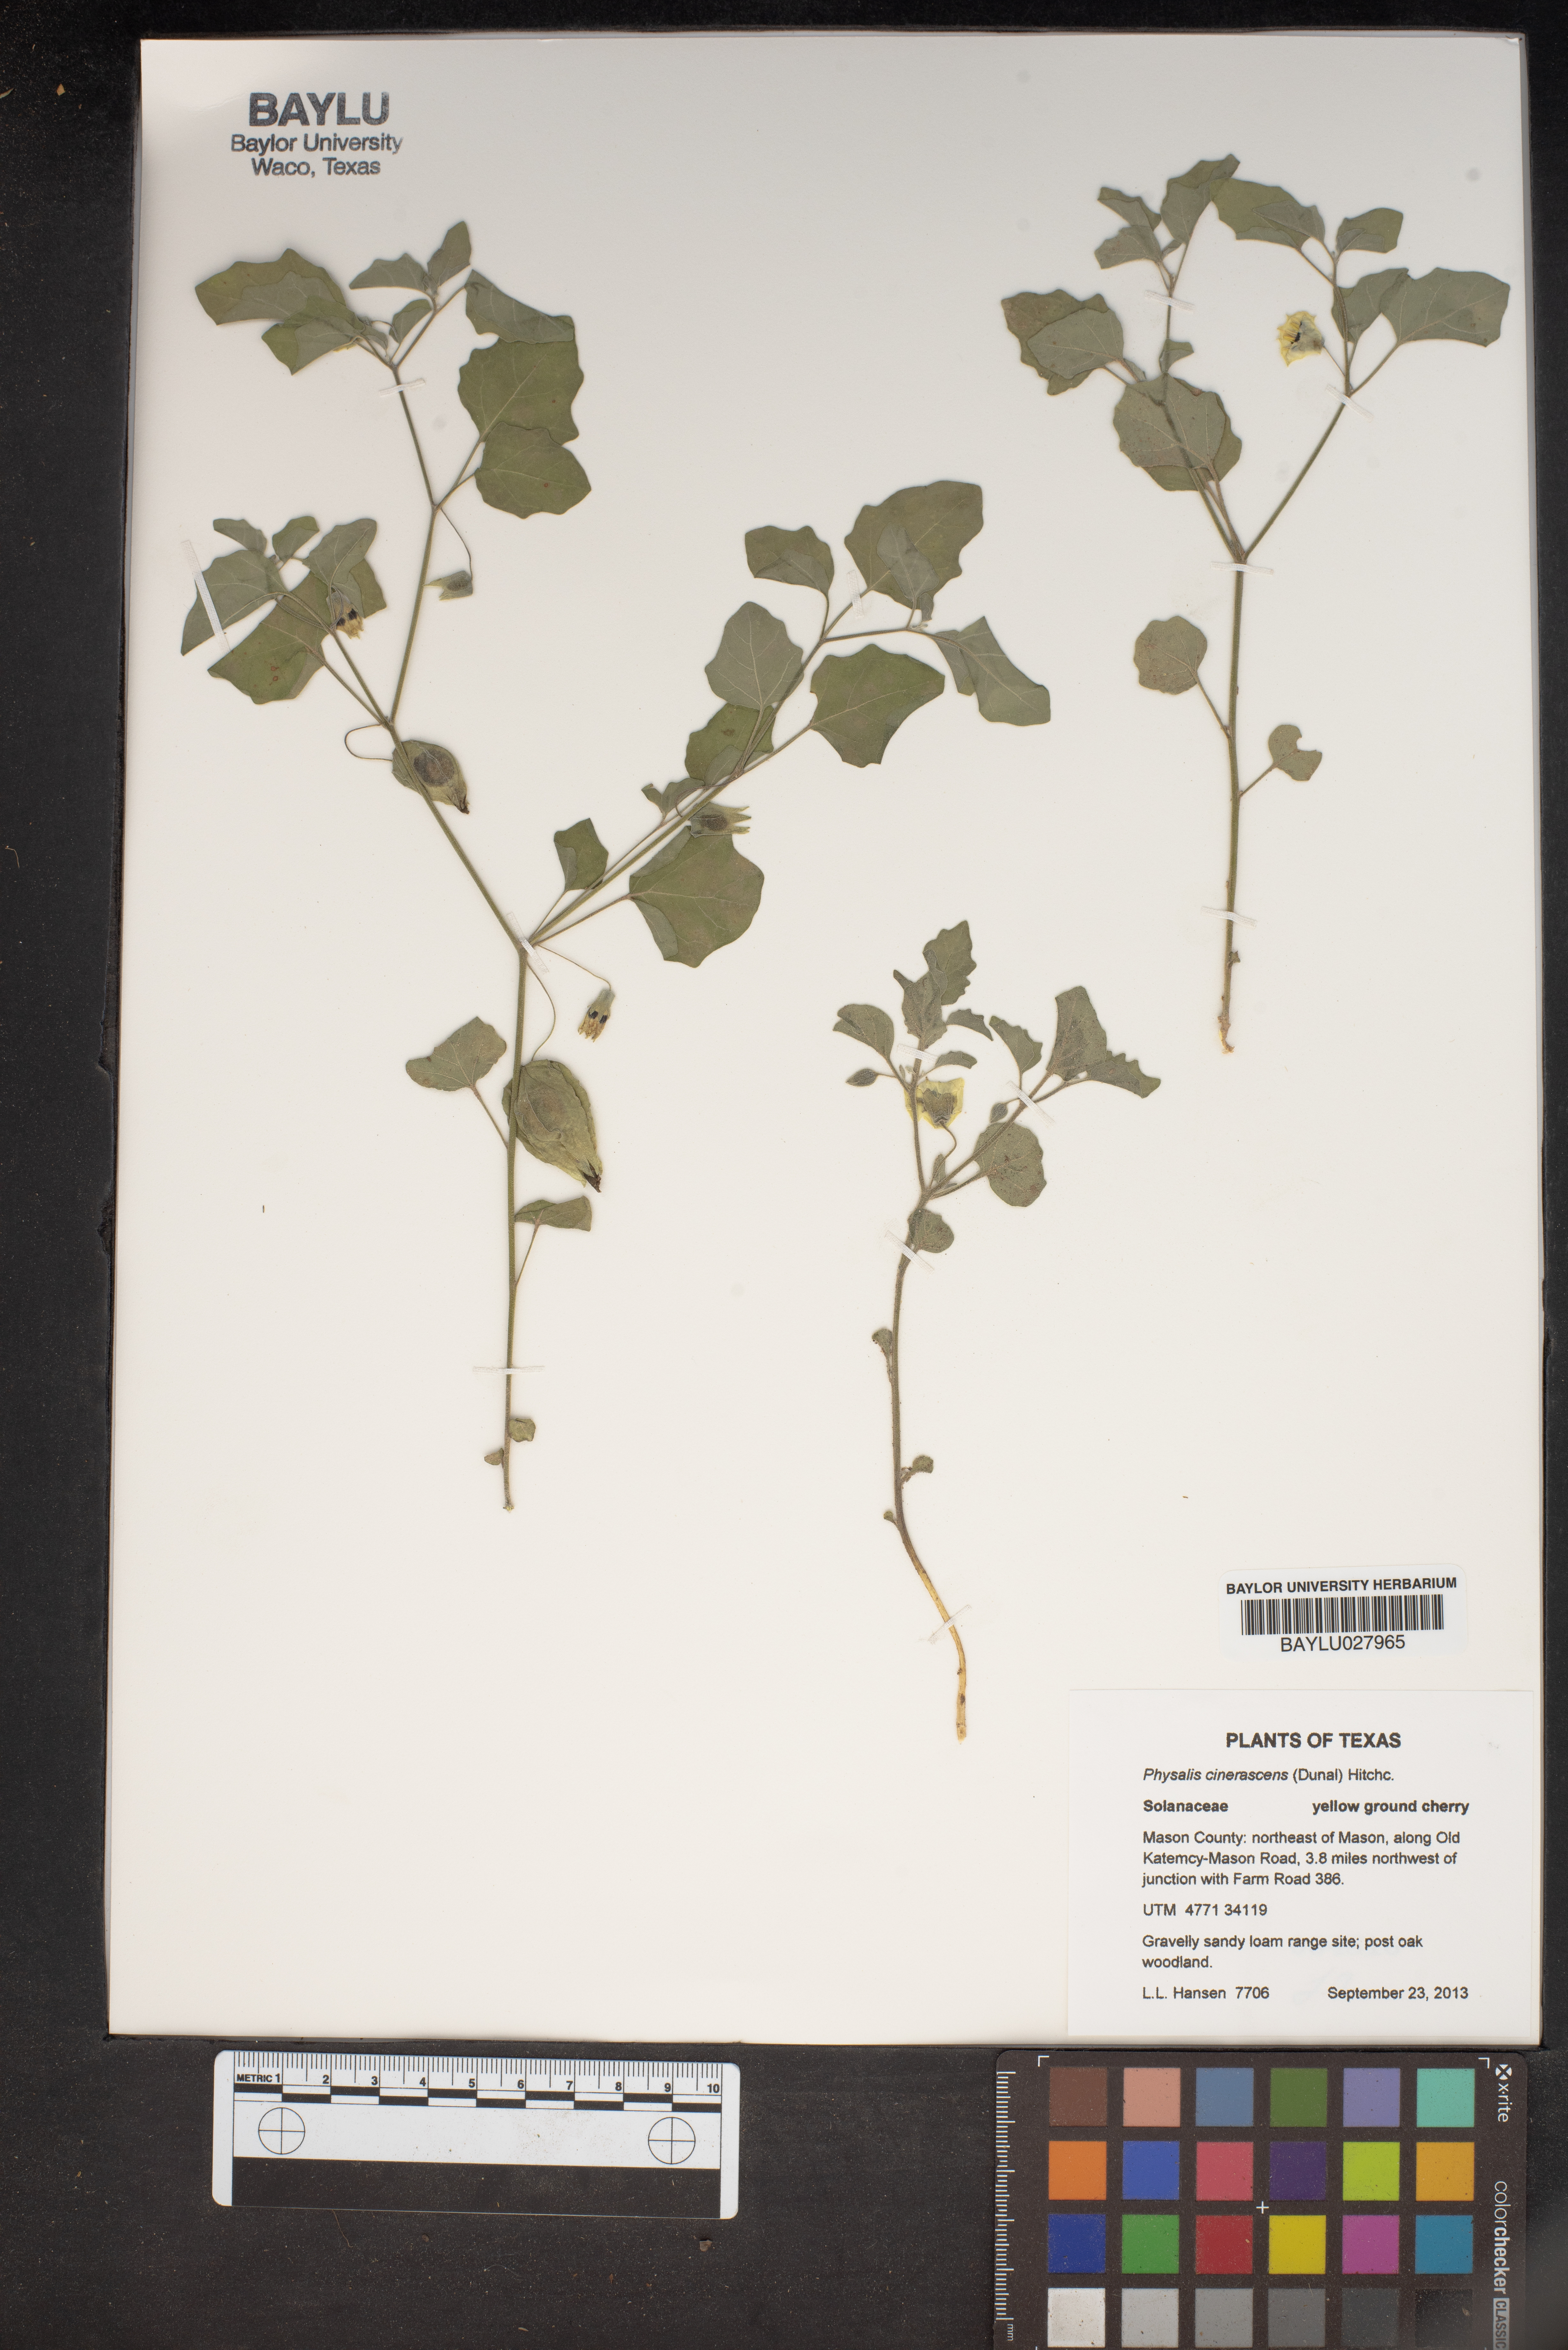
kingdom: Plantae
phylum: Tracheophyta
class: Magnoliopsida
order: Solanales
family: Solanaceae
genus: Physalis
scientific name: Physalis cinerascens
